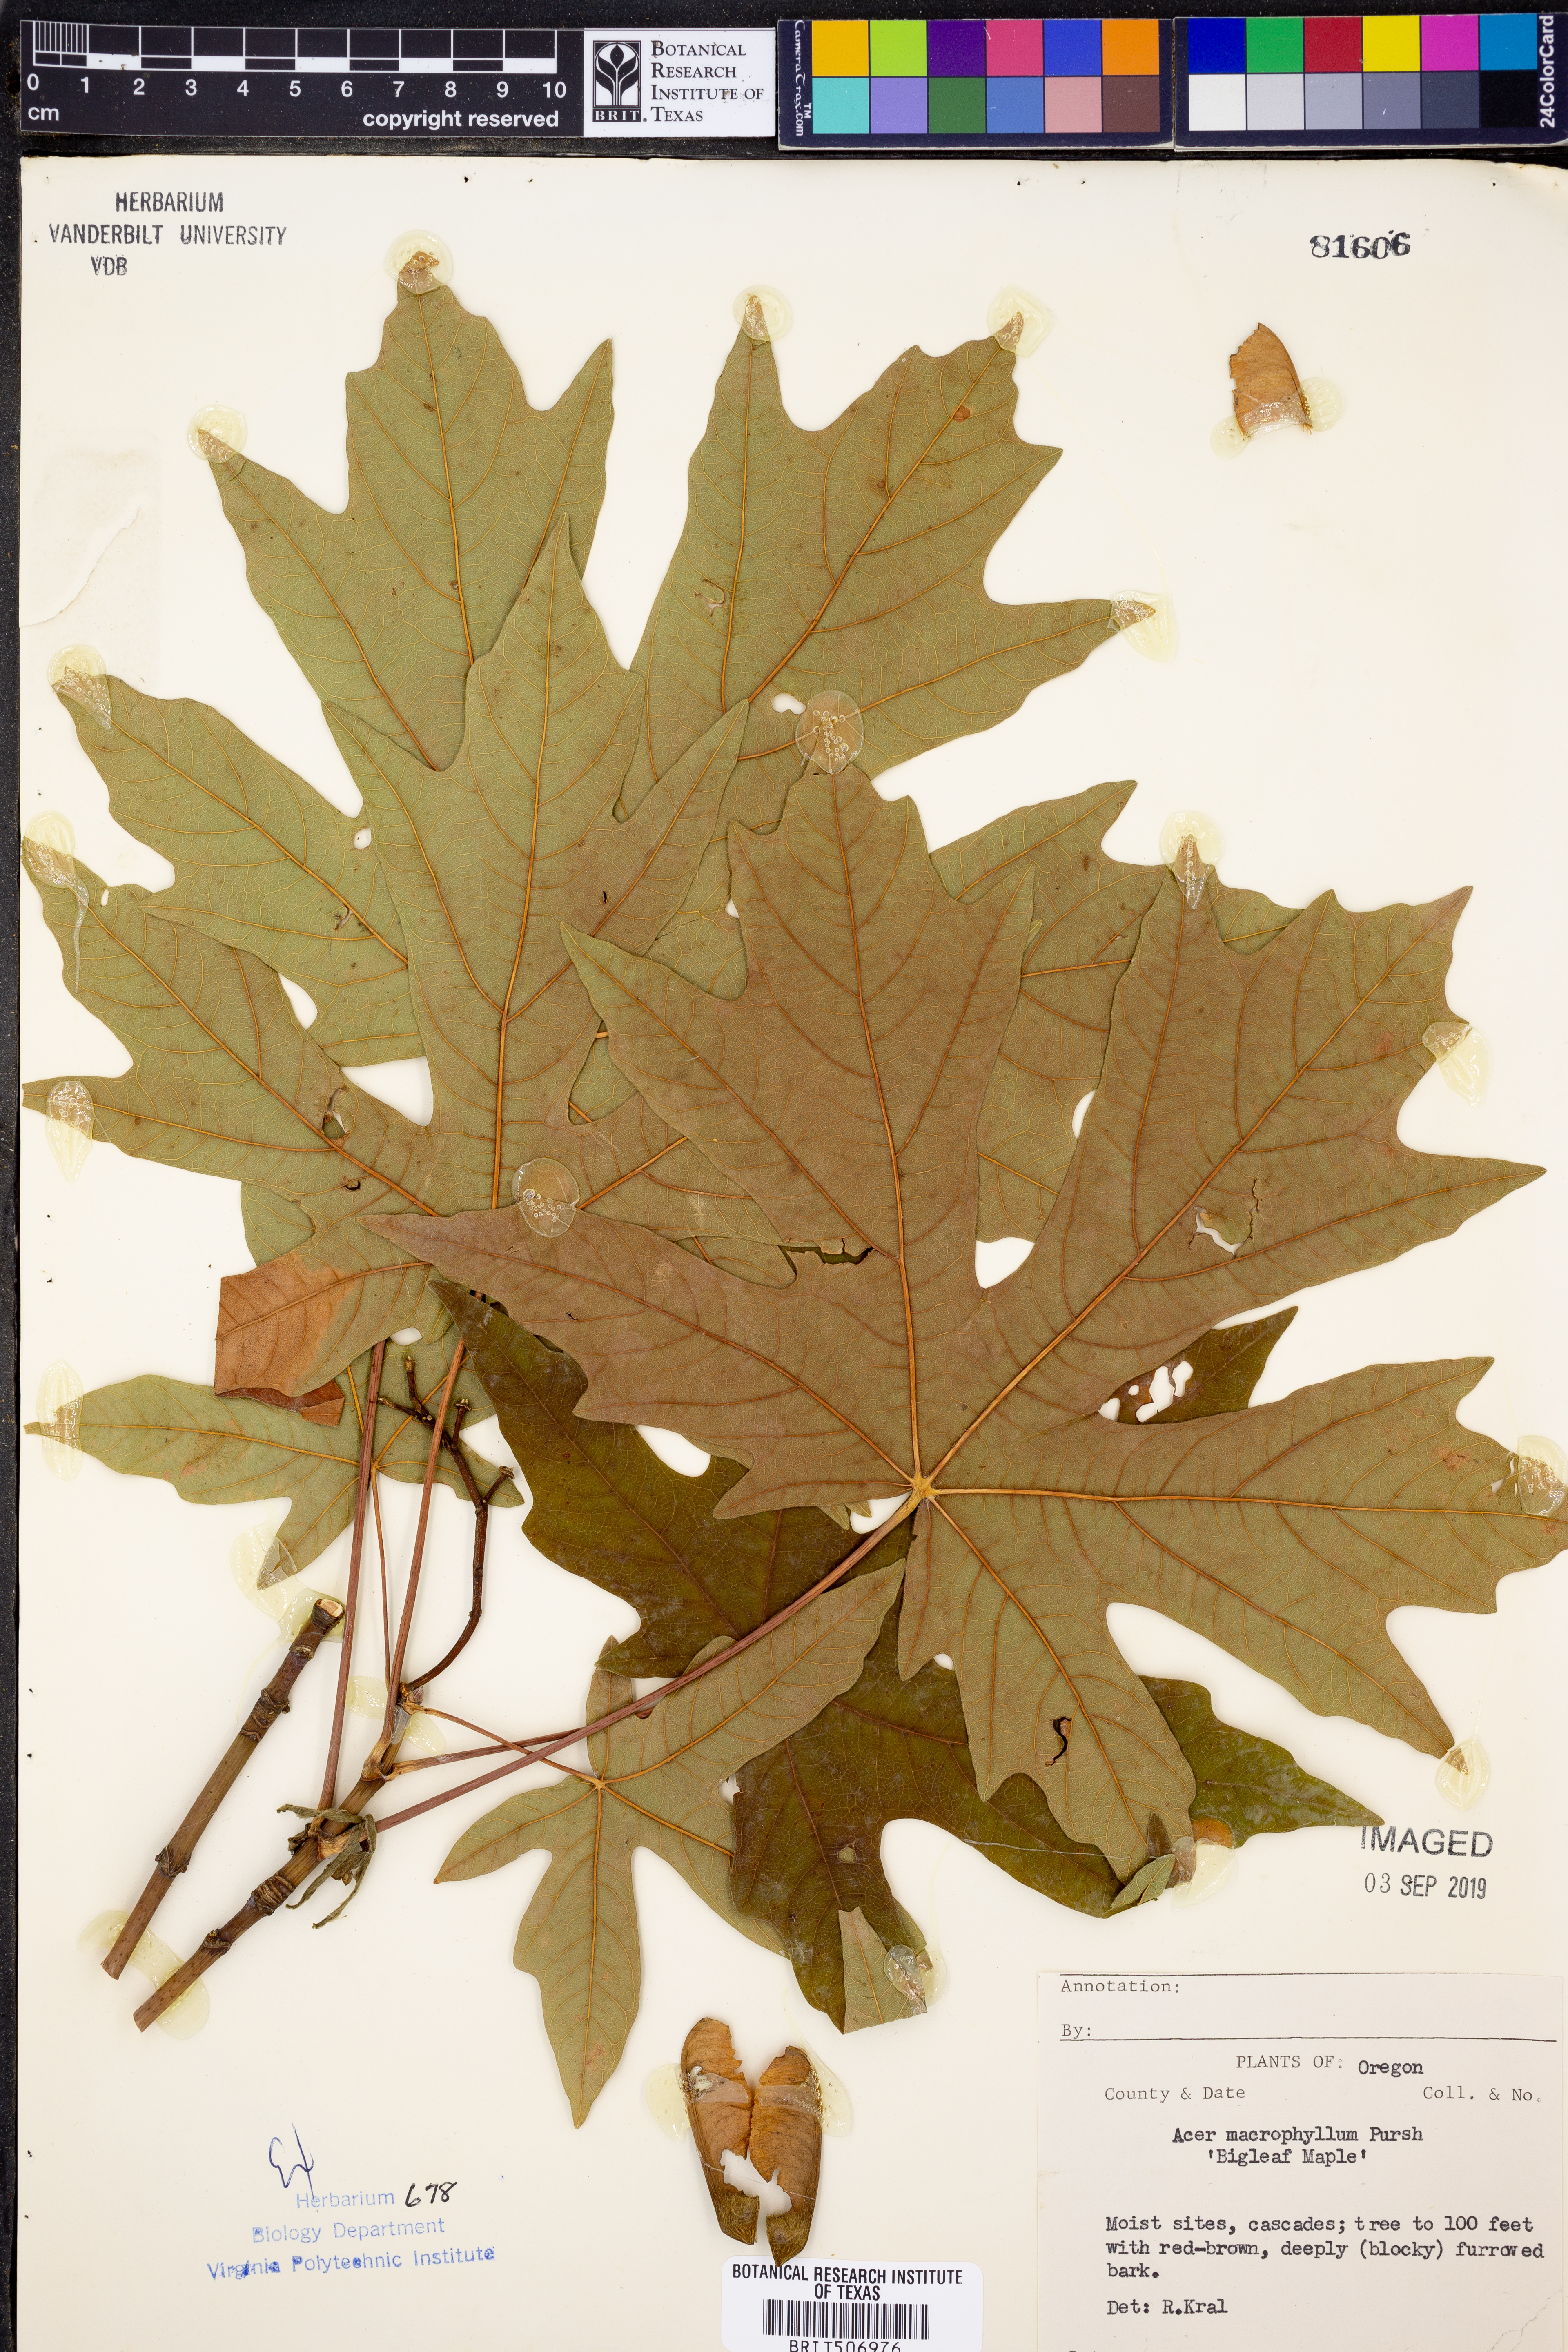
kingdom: Plantae
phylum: Tracheophyta
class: Magnoliopsida
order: Sapindales
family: Sapindaceae
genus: Acer
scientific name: Acer macrophyllum
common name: Oregon maple
